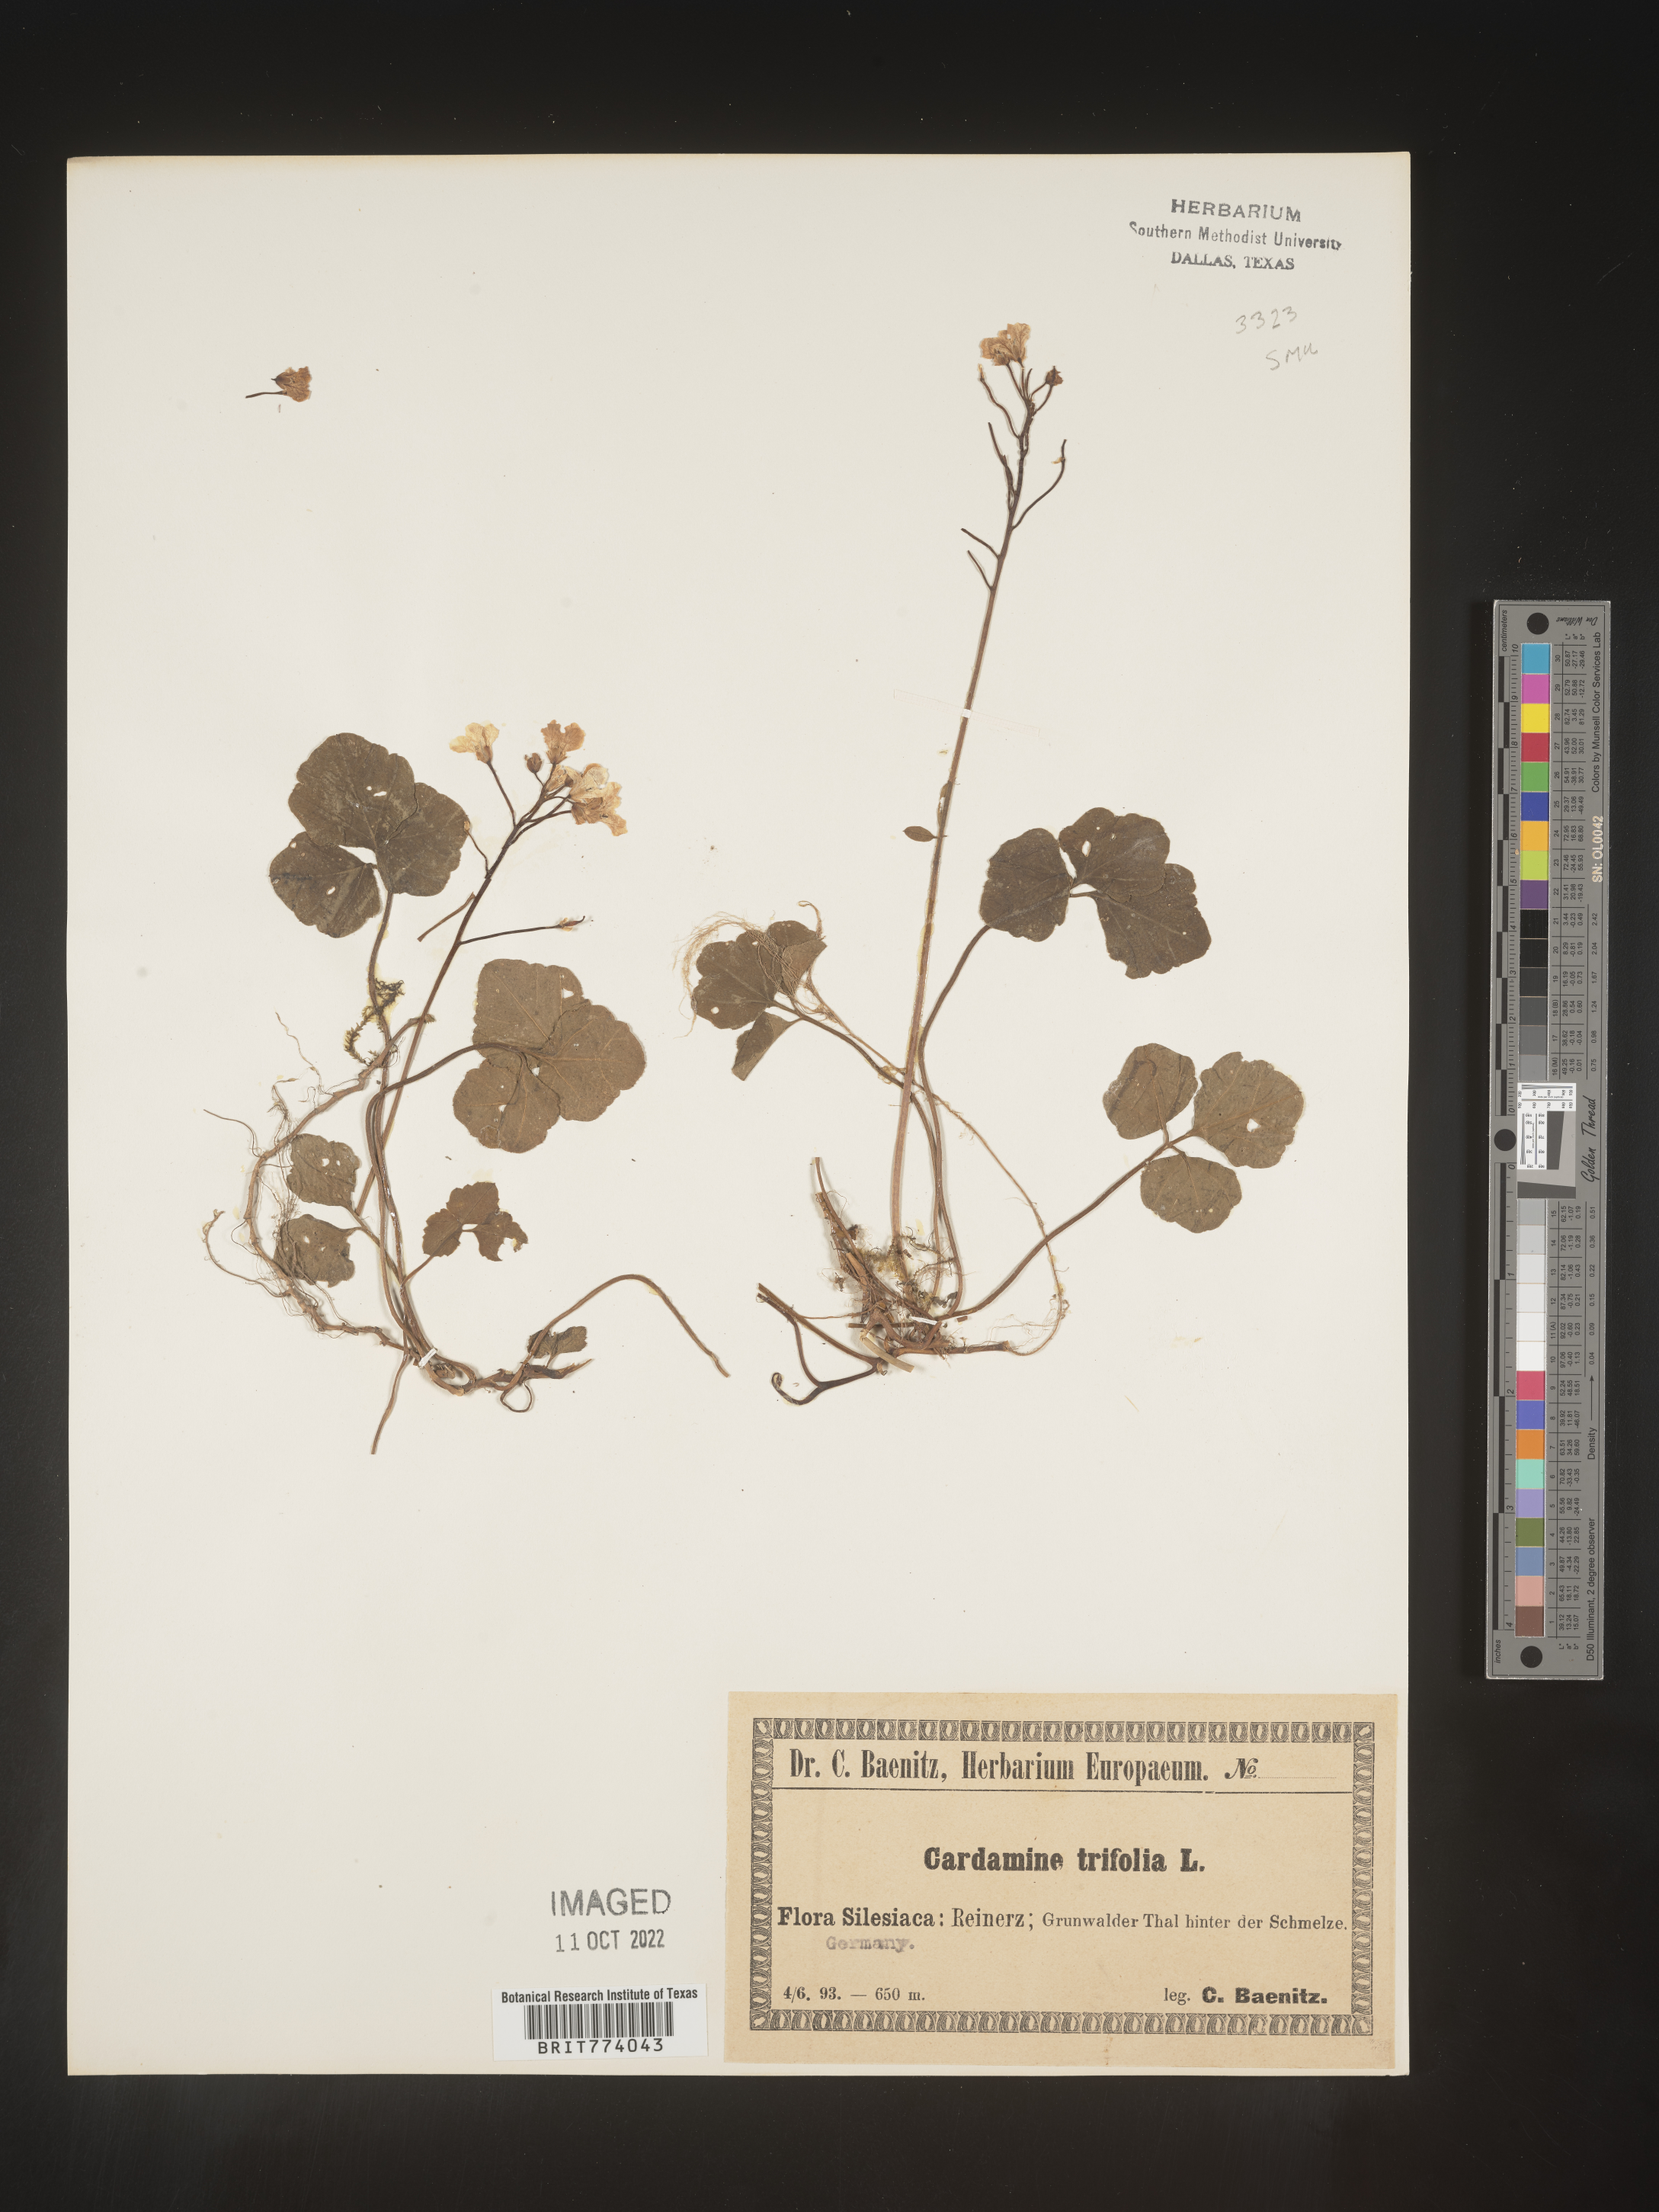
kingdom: Plantae
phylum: Tracheophyta
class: Magnoliopsida
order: Brassicales
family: Brassicaceae
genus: Cardamine
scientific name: Cardamine
